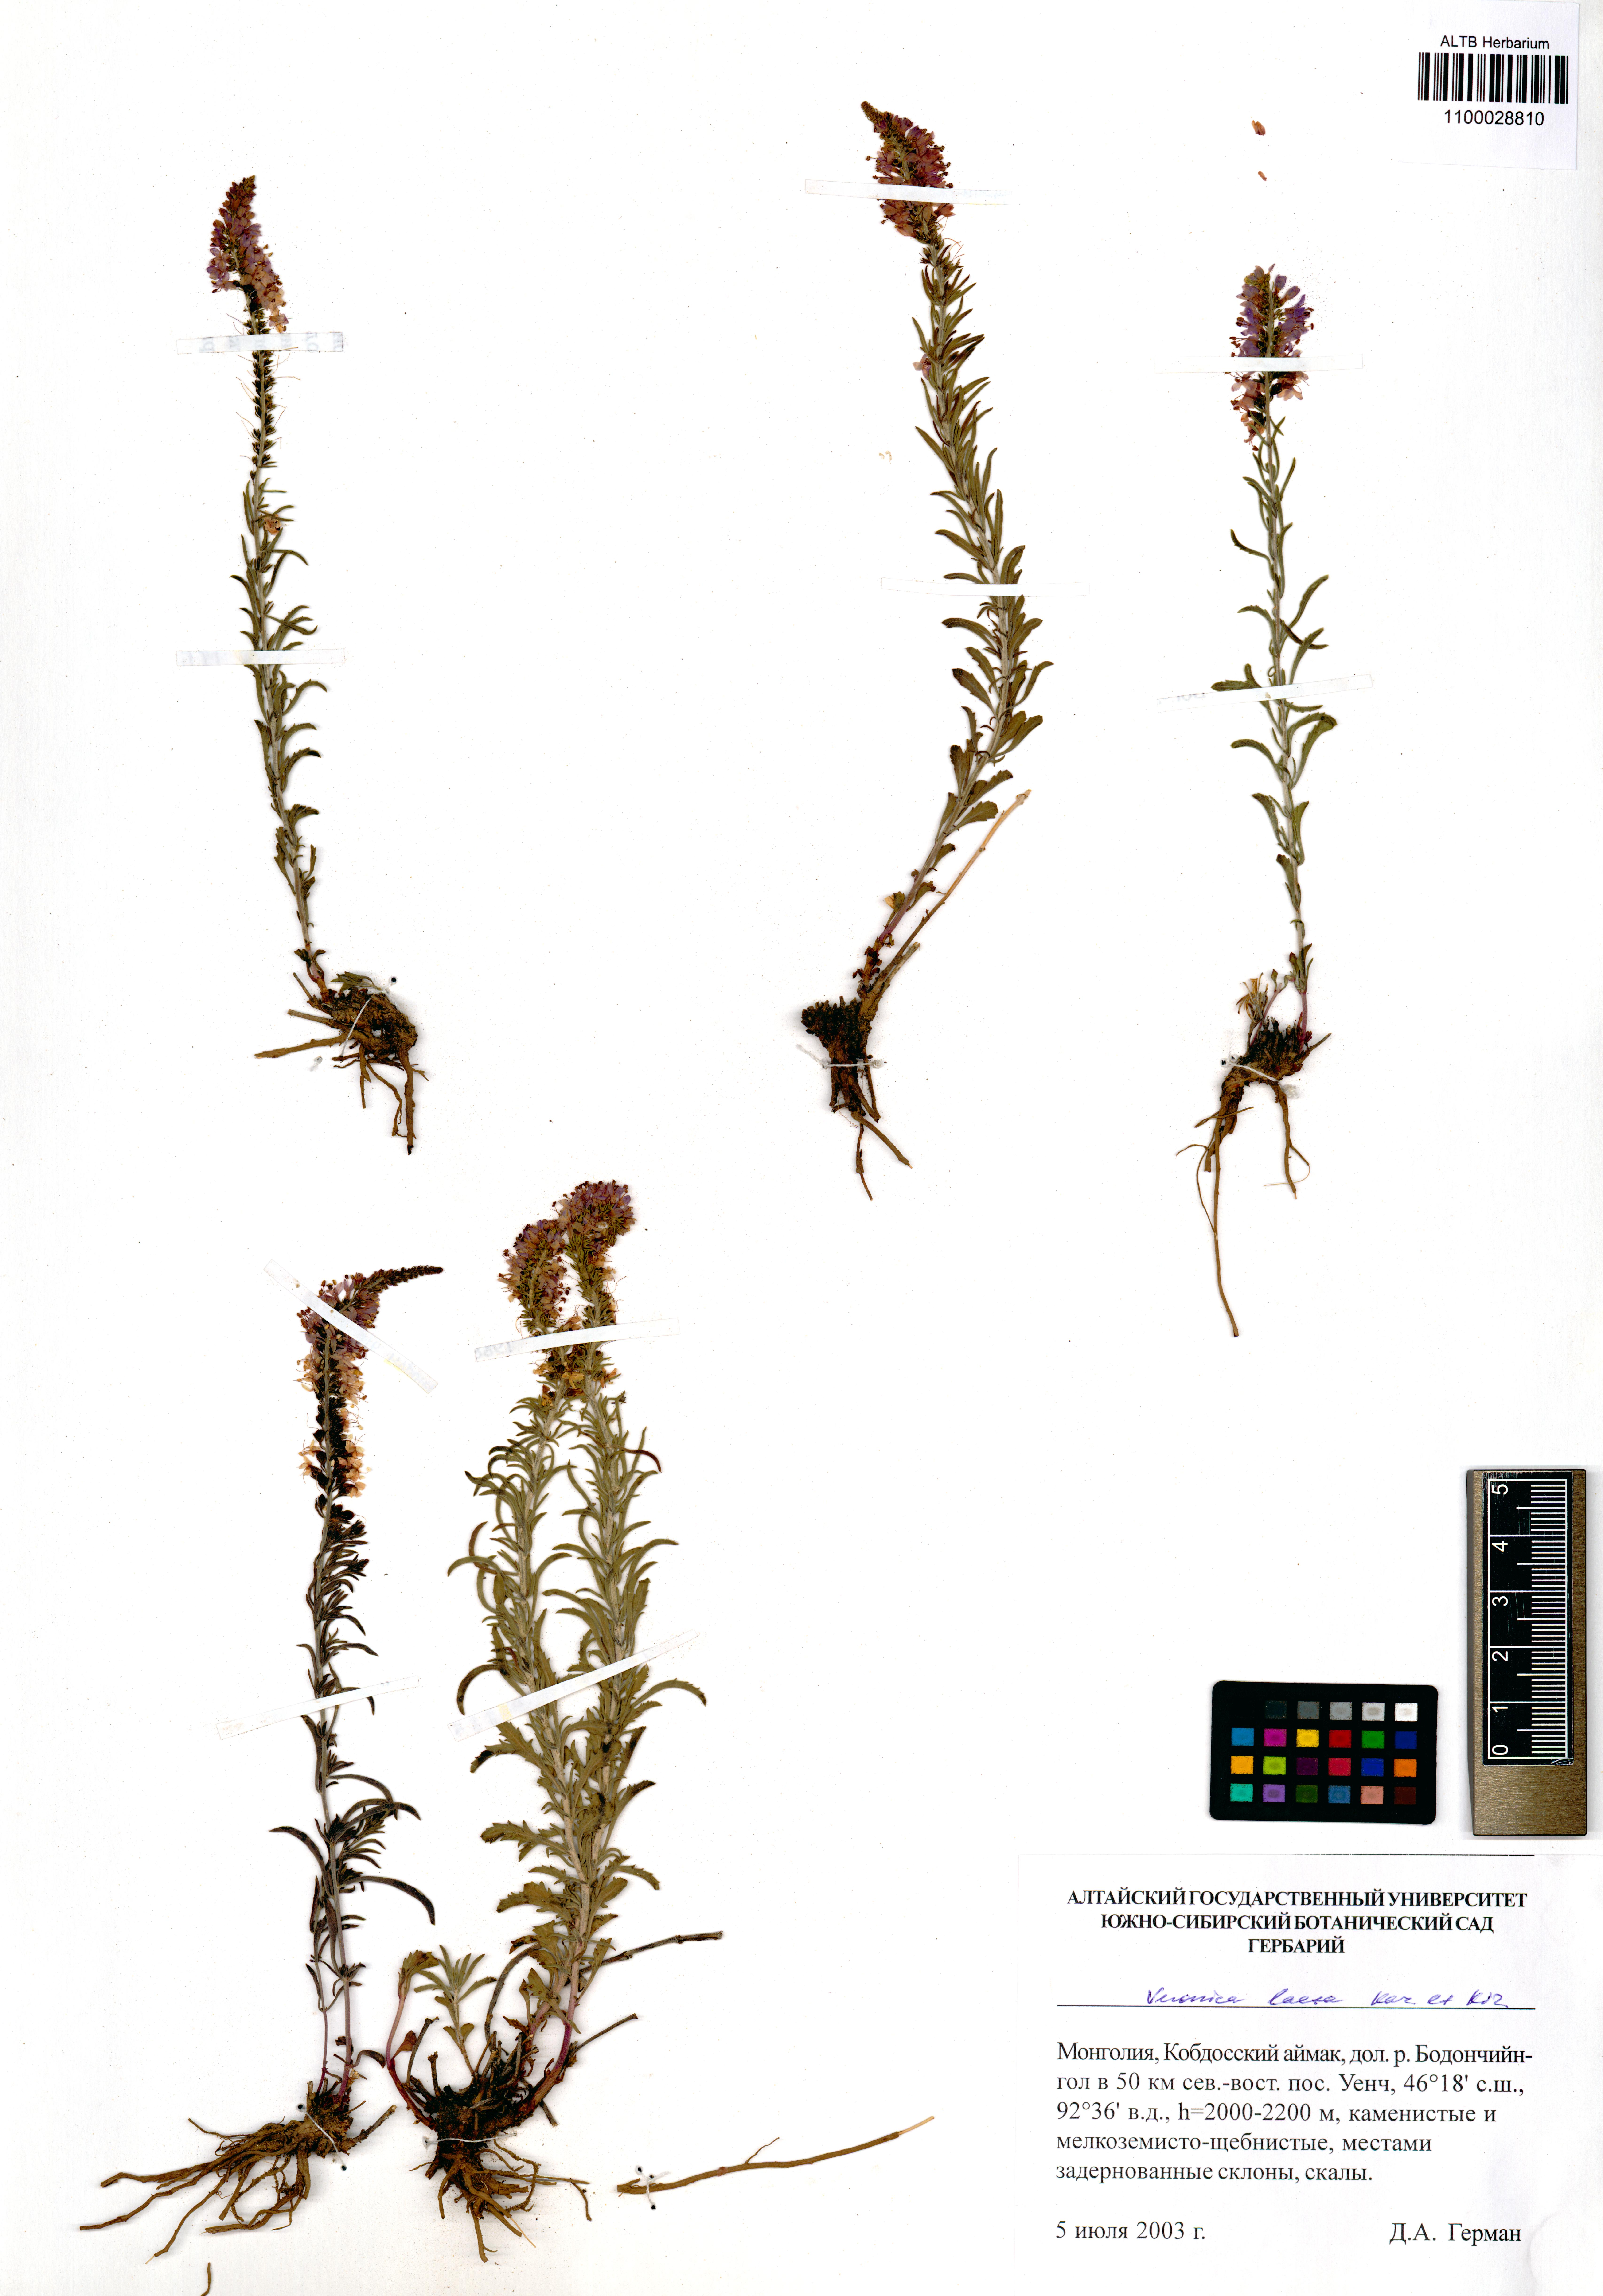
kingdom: Plantae
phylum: Tracheophyta
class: Magnoliopsida
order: Lamiales
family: Plantaginaceae
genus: Veronica
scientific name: Veronica laeta
